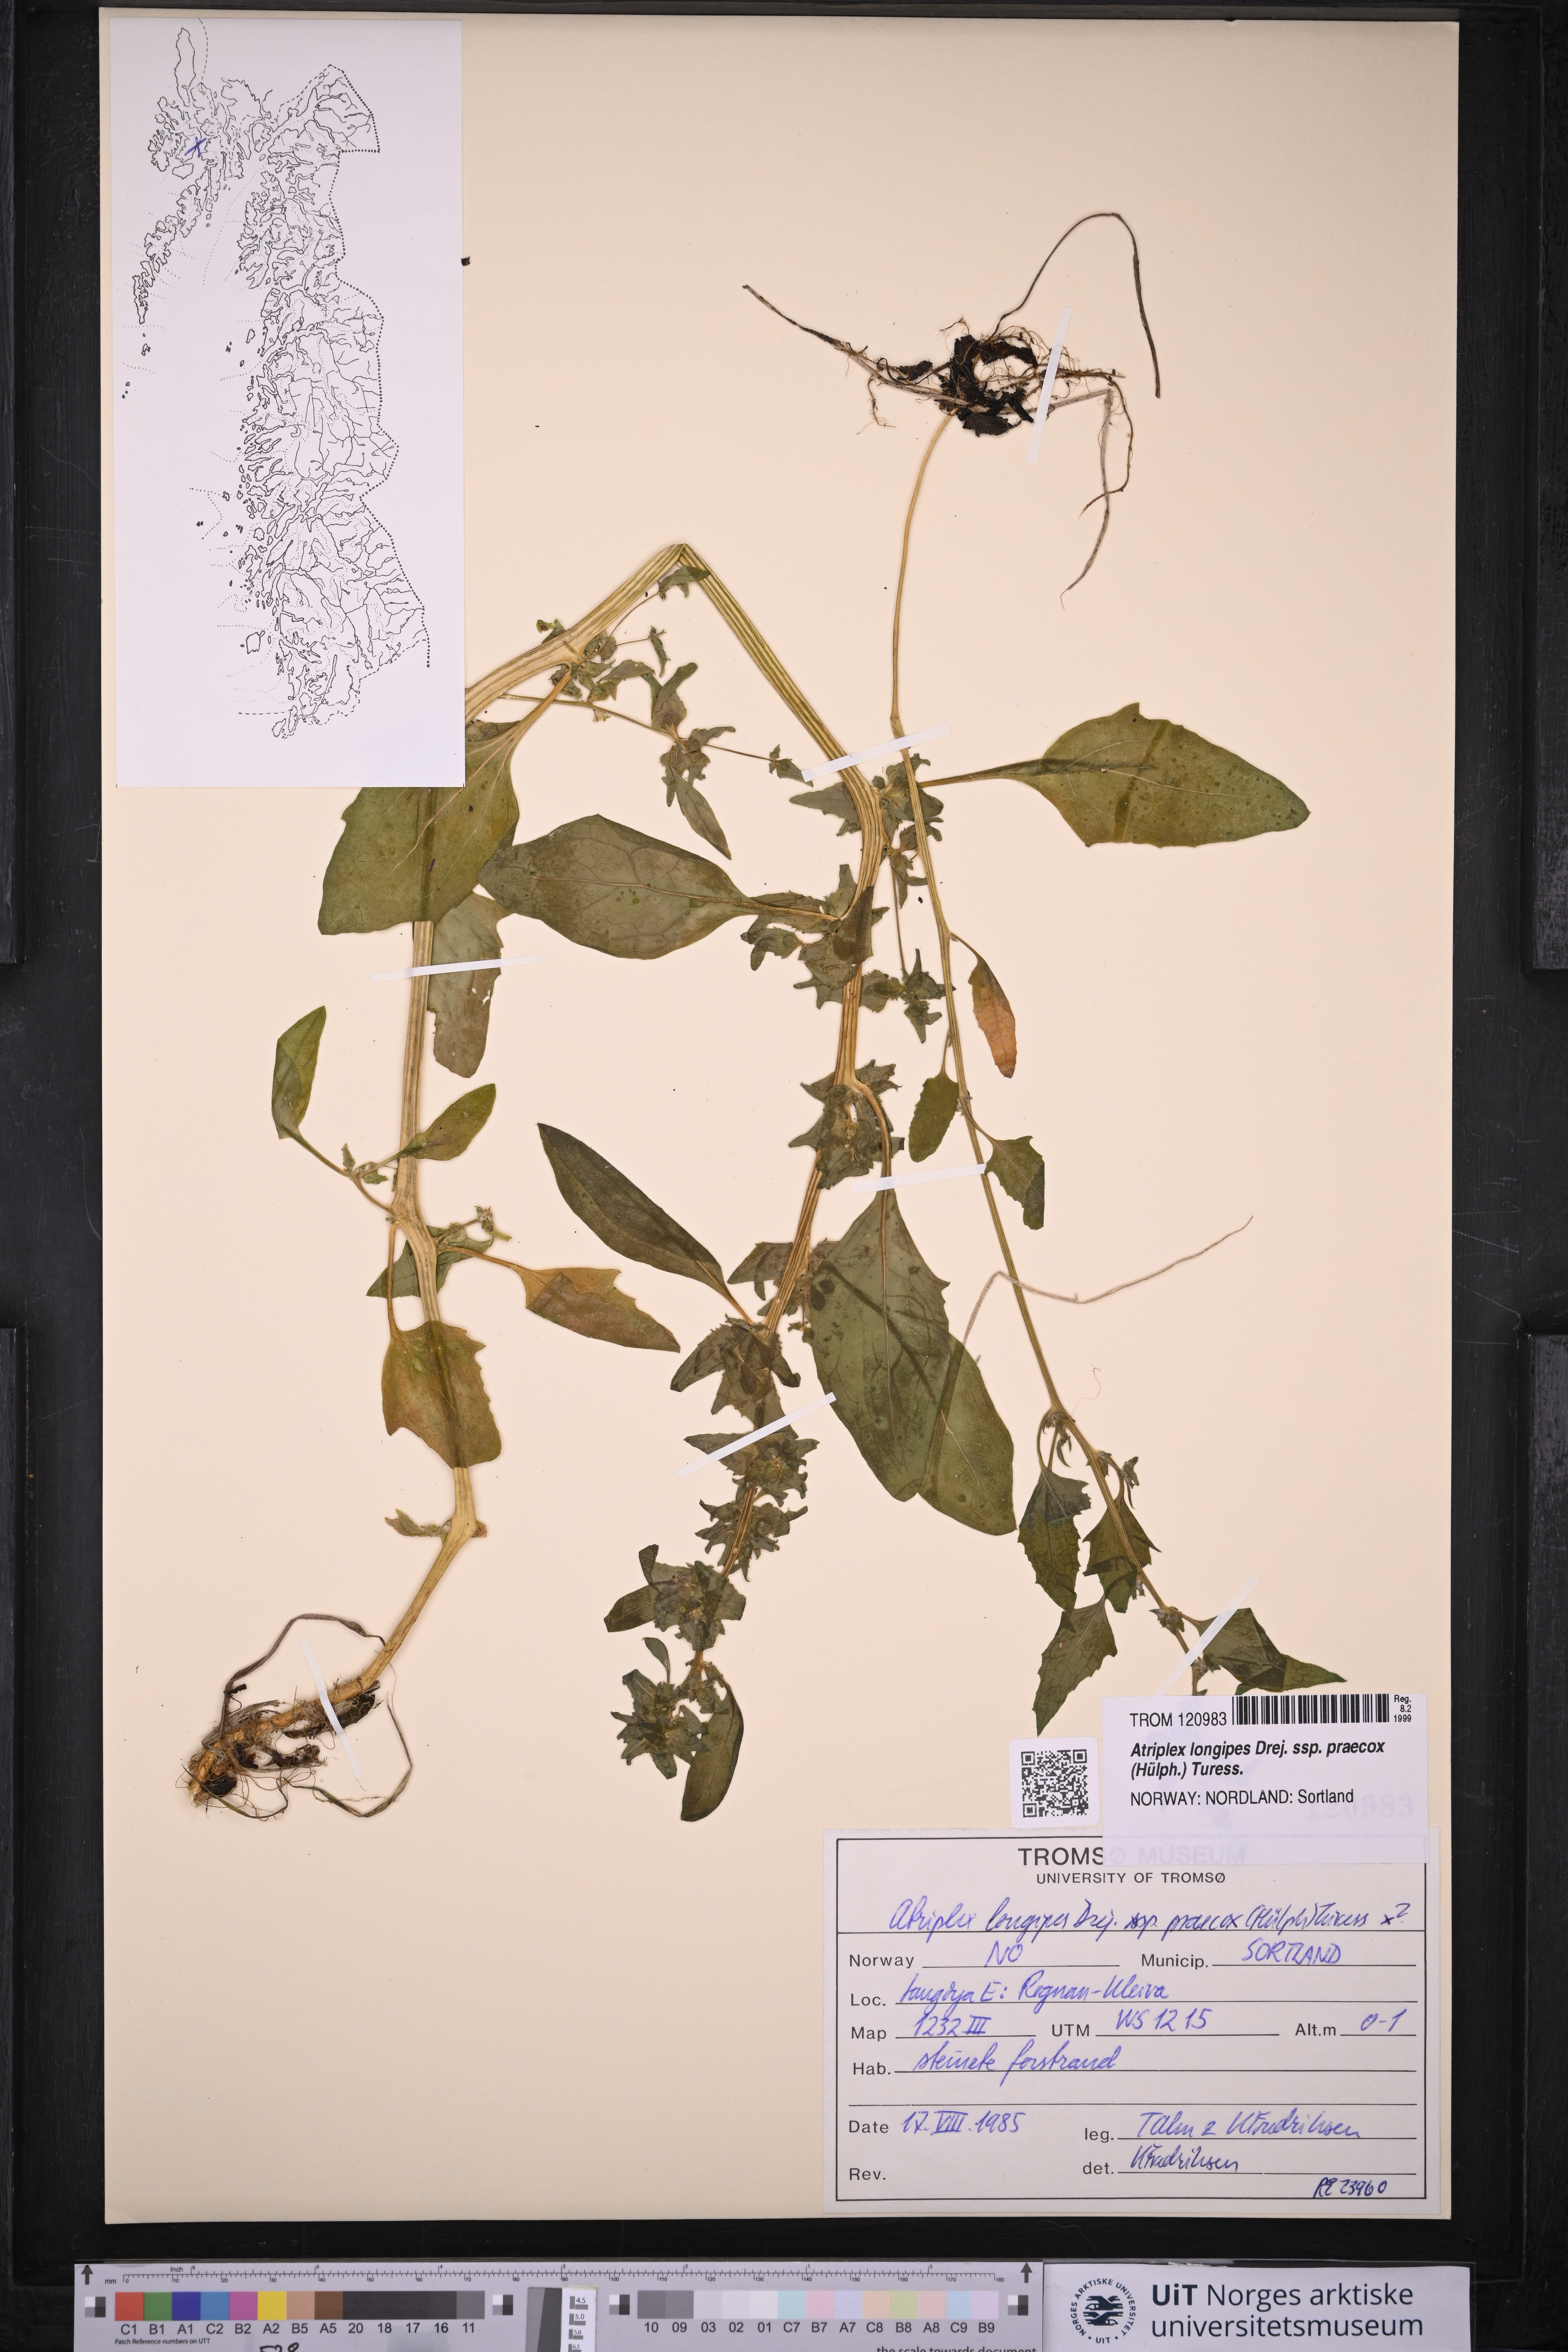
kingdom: Plantae
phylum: Tracheophyta
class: Magnoliopsida
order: Caryophyllales
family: Amaranthaceae
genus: Atriplex
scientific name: Atriplex praecox
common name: Early orache
